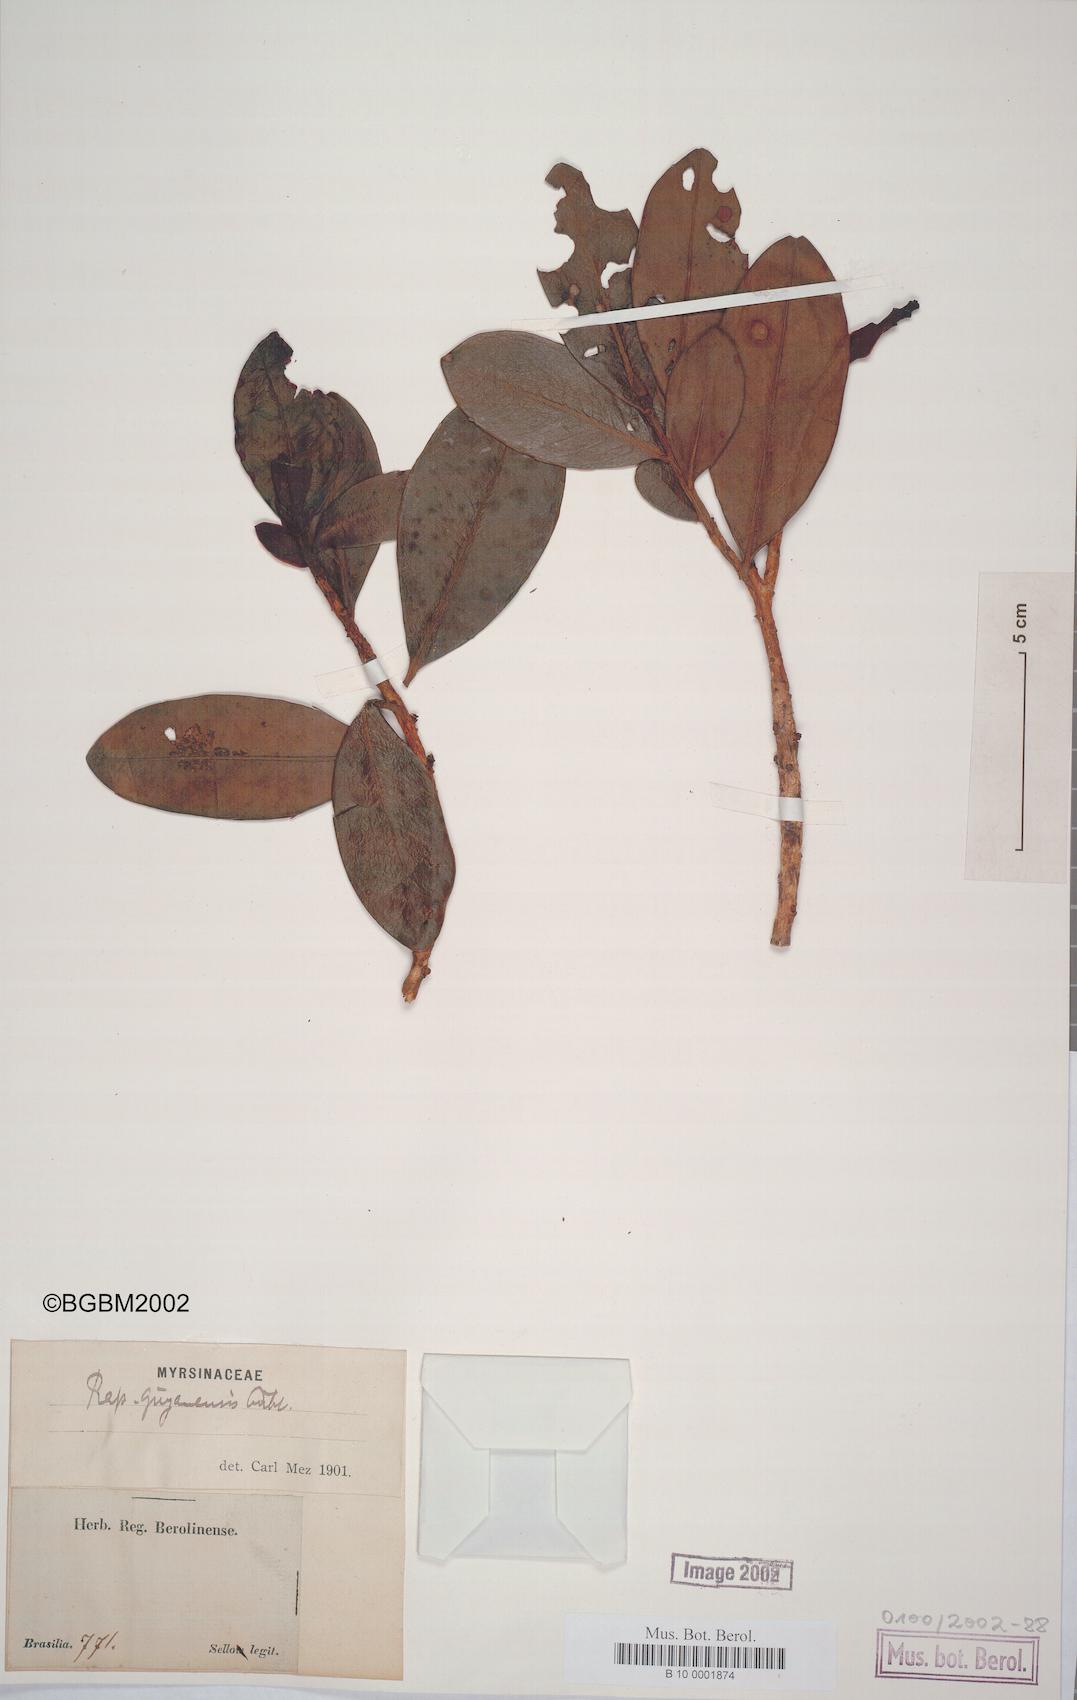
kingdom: Plantae
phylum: Tracheophyta
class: Magnoliopsida
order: Ericales
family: Primulaceae
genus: Myrsine
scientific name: Myrsine guianensis
